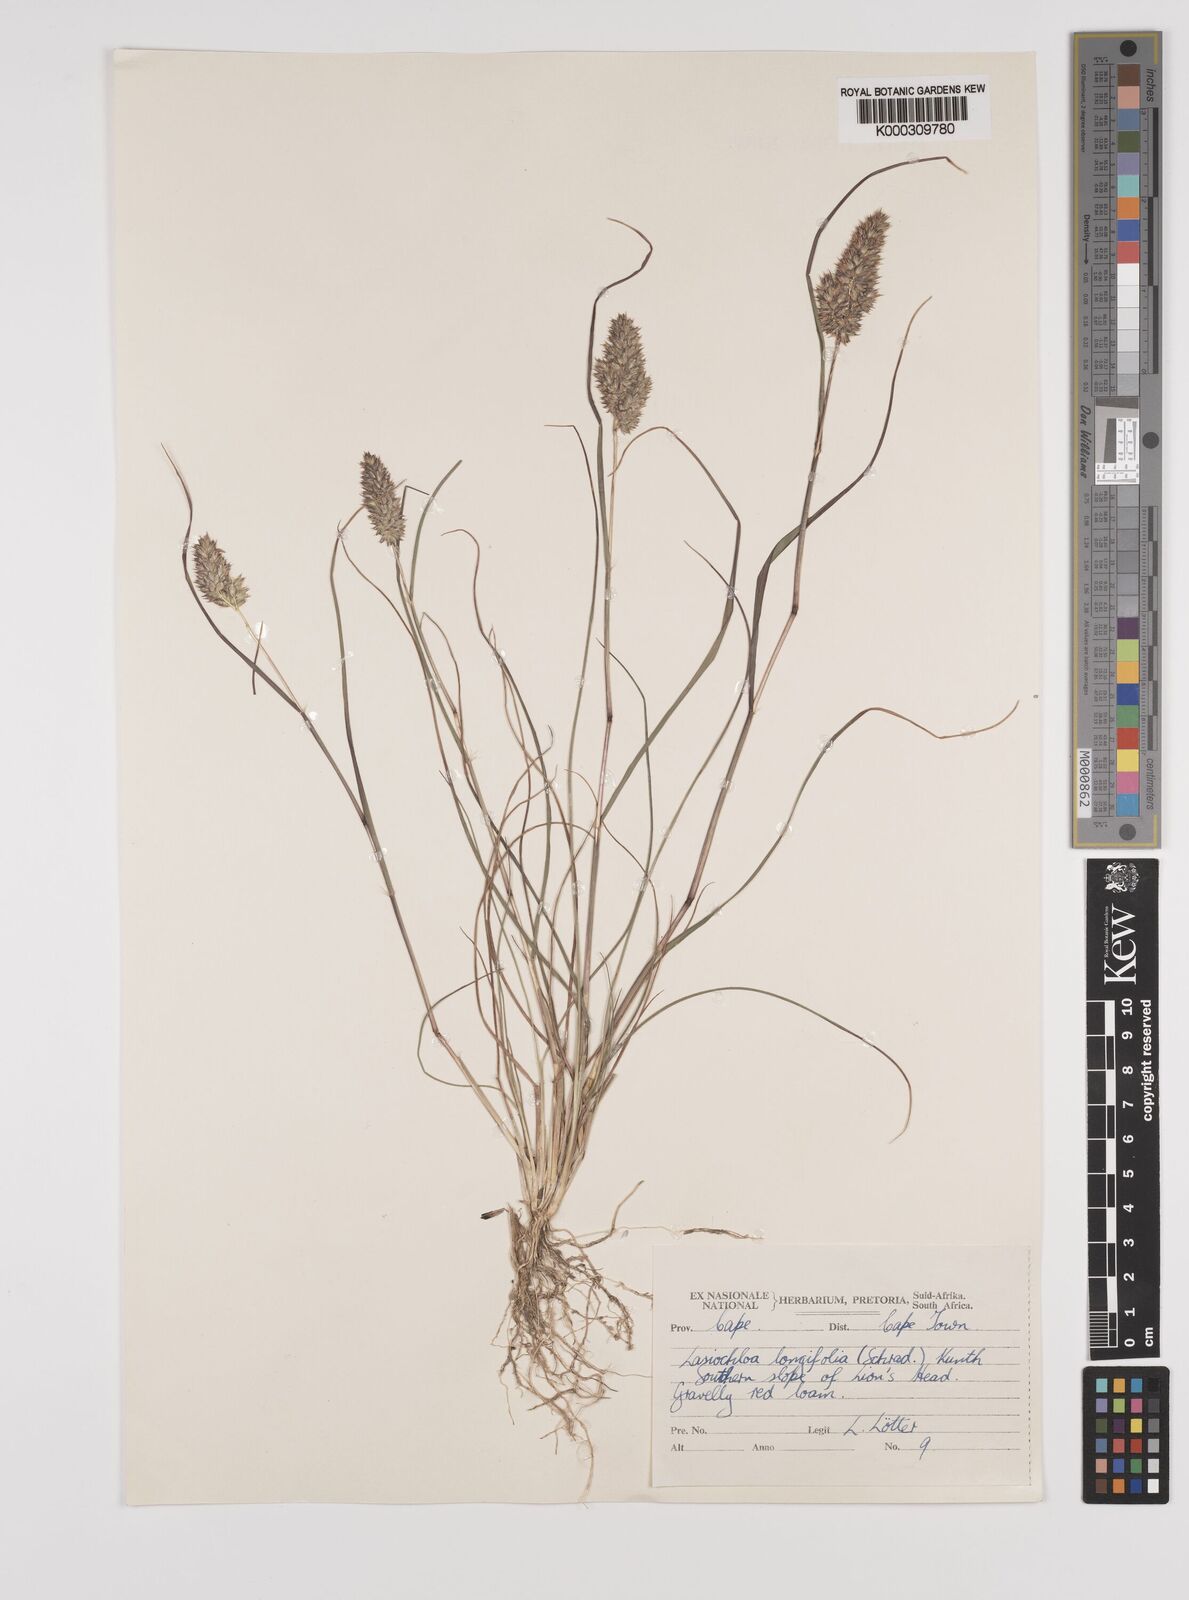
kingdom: Plantae
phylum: Tracheophyta
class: Liliopsida
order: Poales
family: Poaceae
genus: Tribolium
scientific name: Tribolium hispidum
